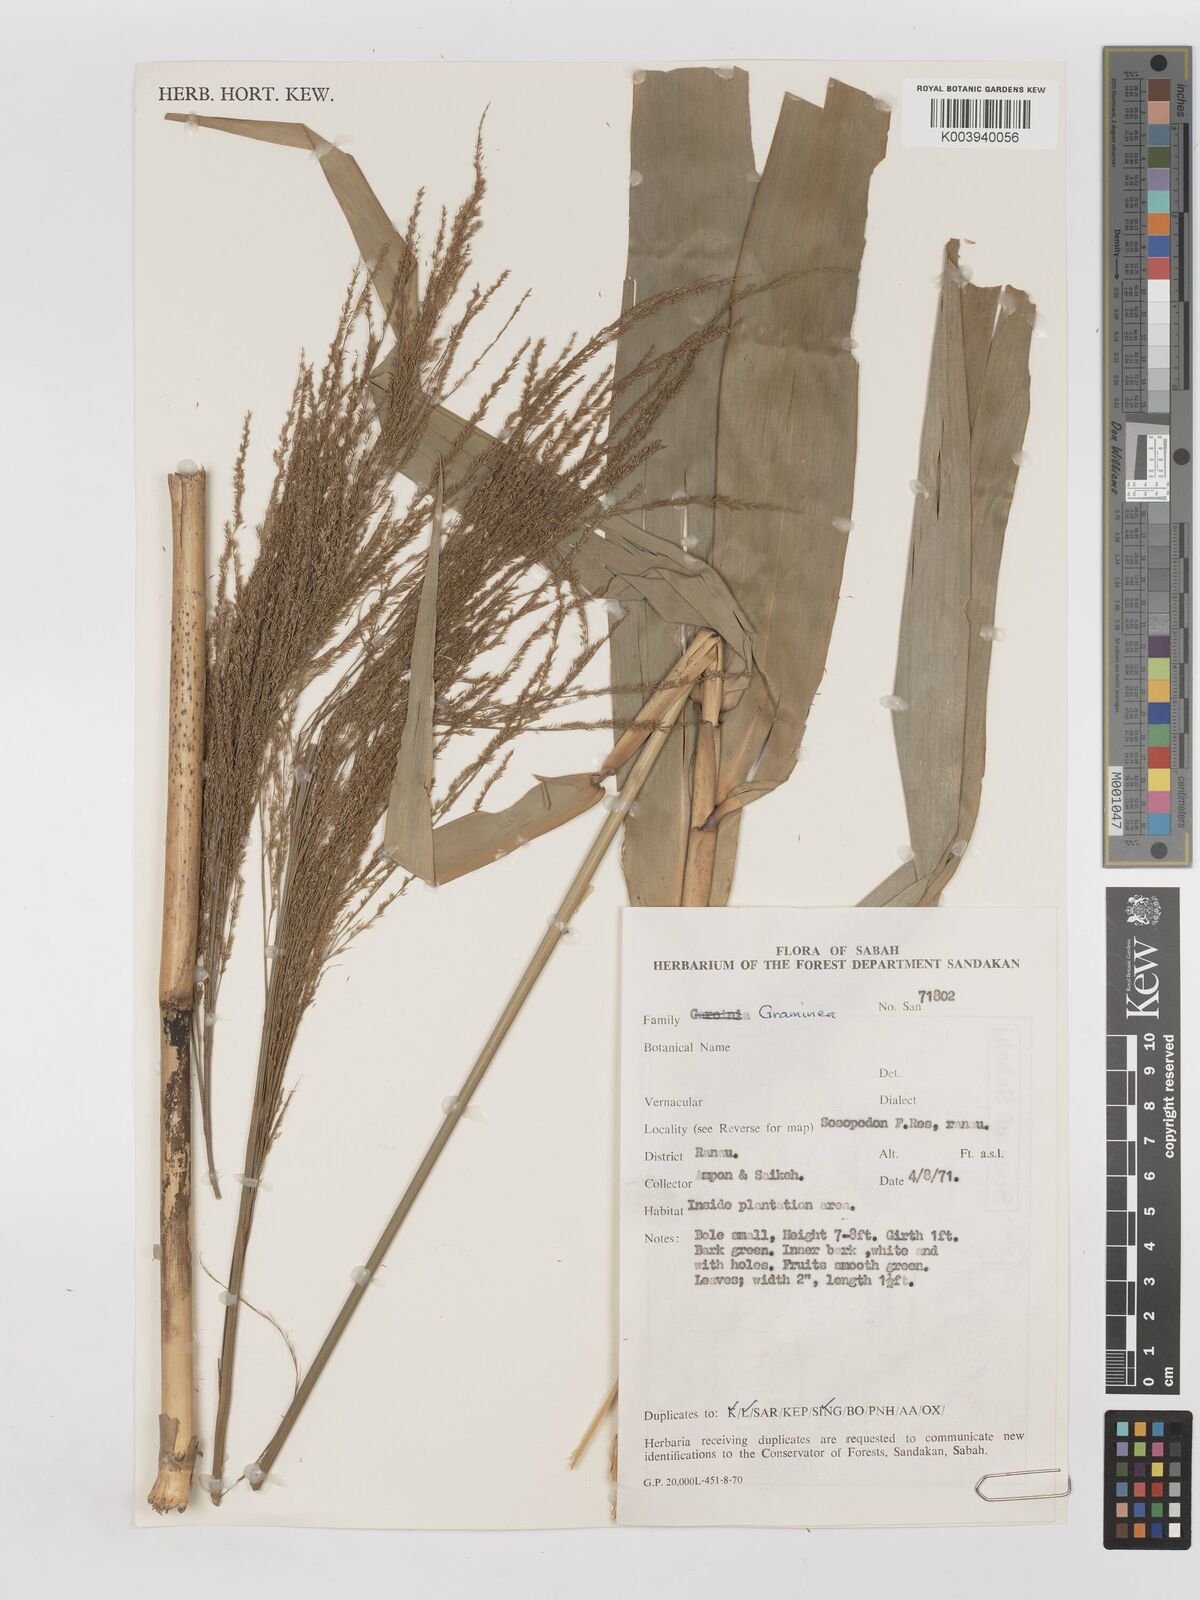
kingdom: Plantae
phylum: Tracheophyta
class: Liliopsida
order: Poales
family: Poaceae
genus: Thysanolaena
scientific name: Thysanolaena latifolia
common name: Tiger grass
